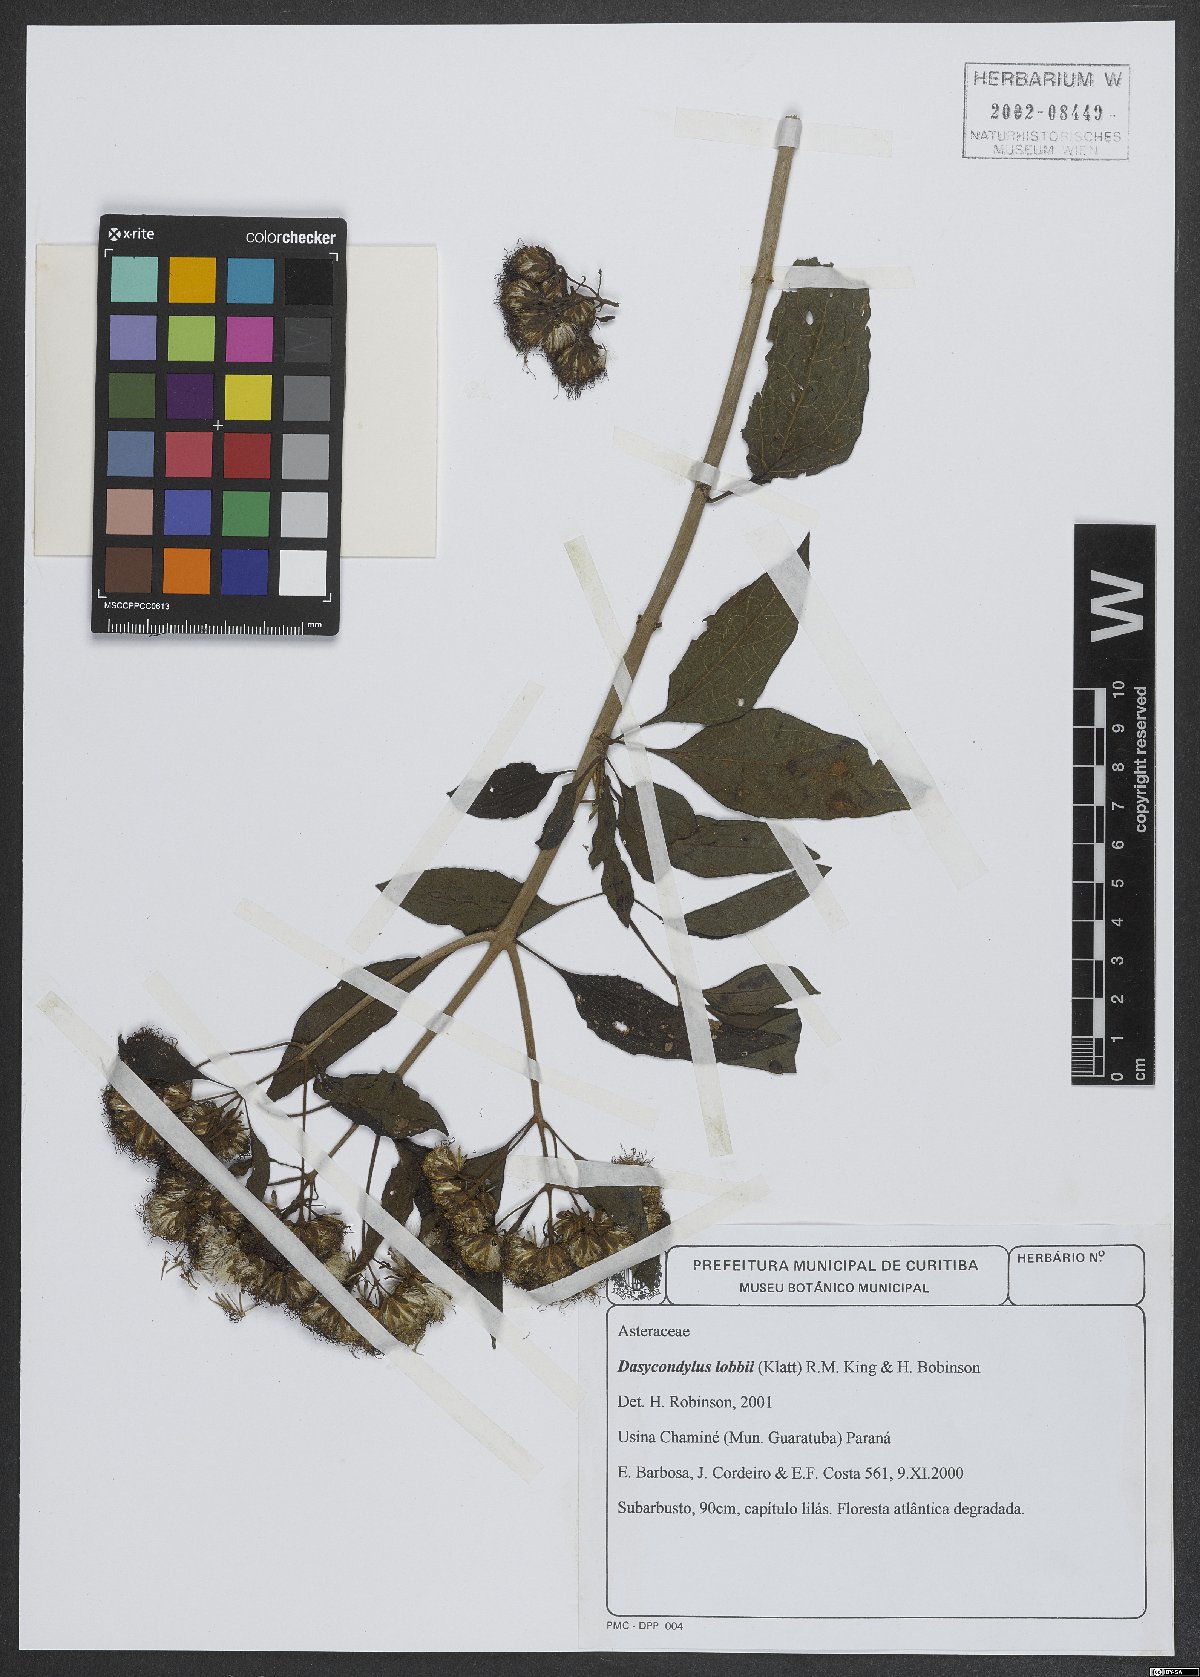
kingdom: Plantae
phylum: Tracheophyta
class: Magnoliopsida
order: Asterales
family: Asteraceae
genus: Dasycondylus
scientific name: Dasycondylus lobbii
